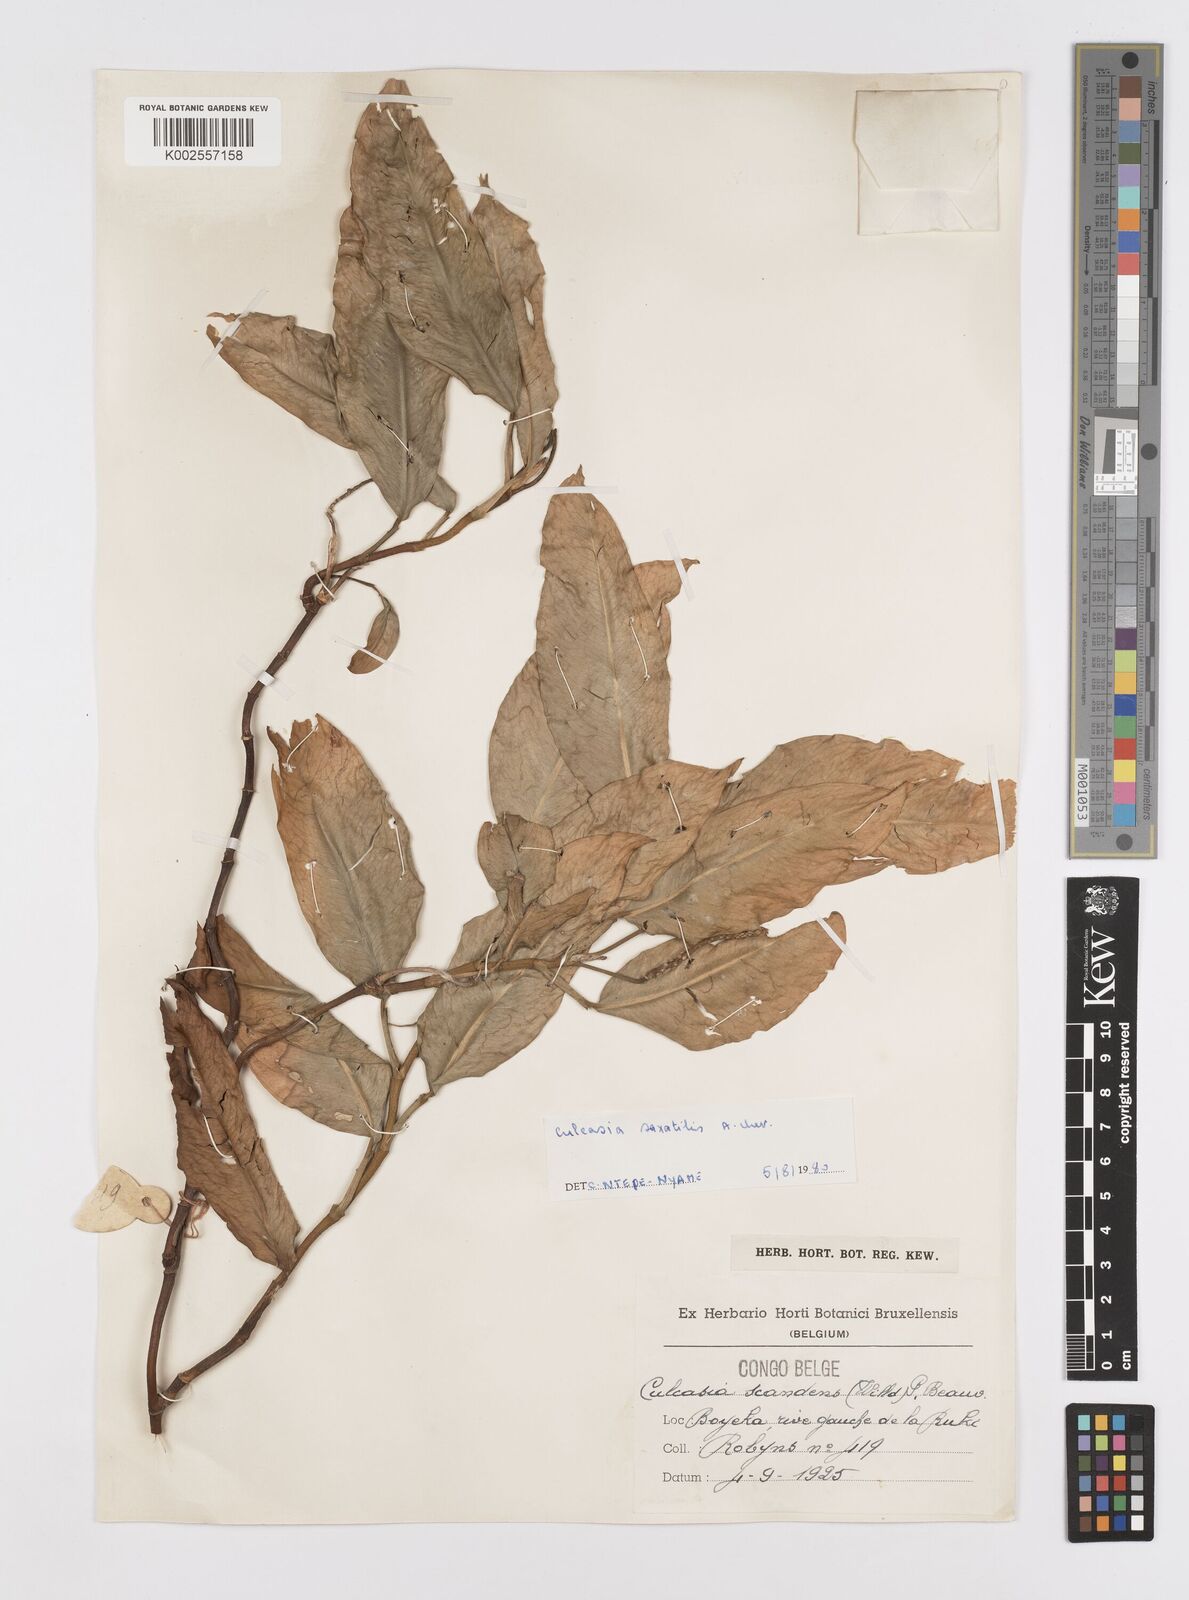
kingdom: Plantae
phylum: Tracheophyta
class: Liliopsida
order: Alismatales
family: Araceae
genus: Culcasia
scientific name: Culcasia scandens
